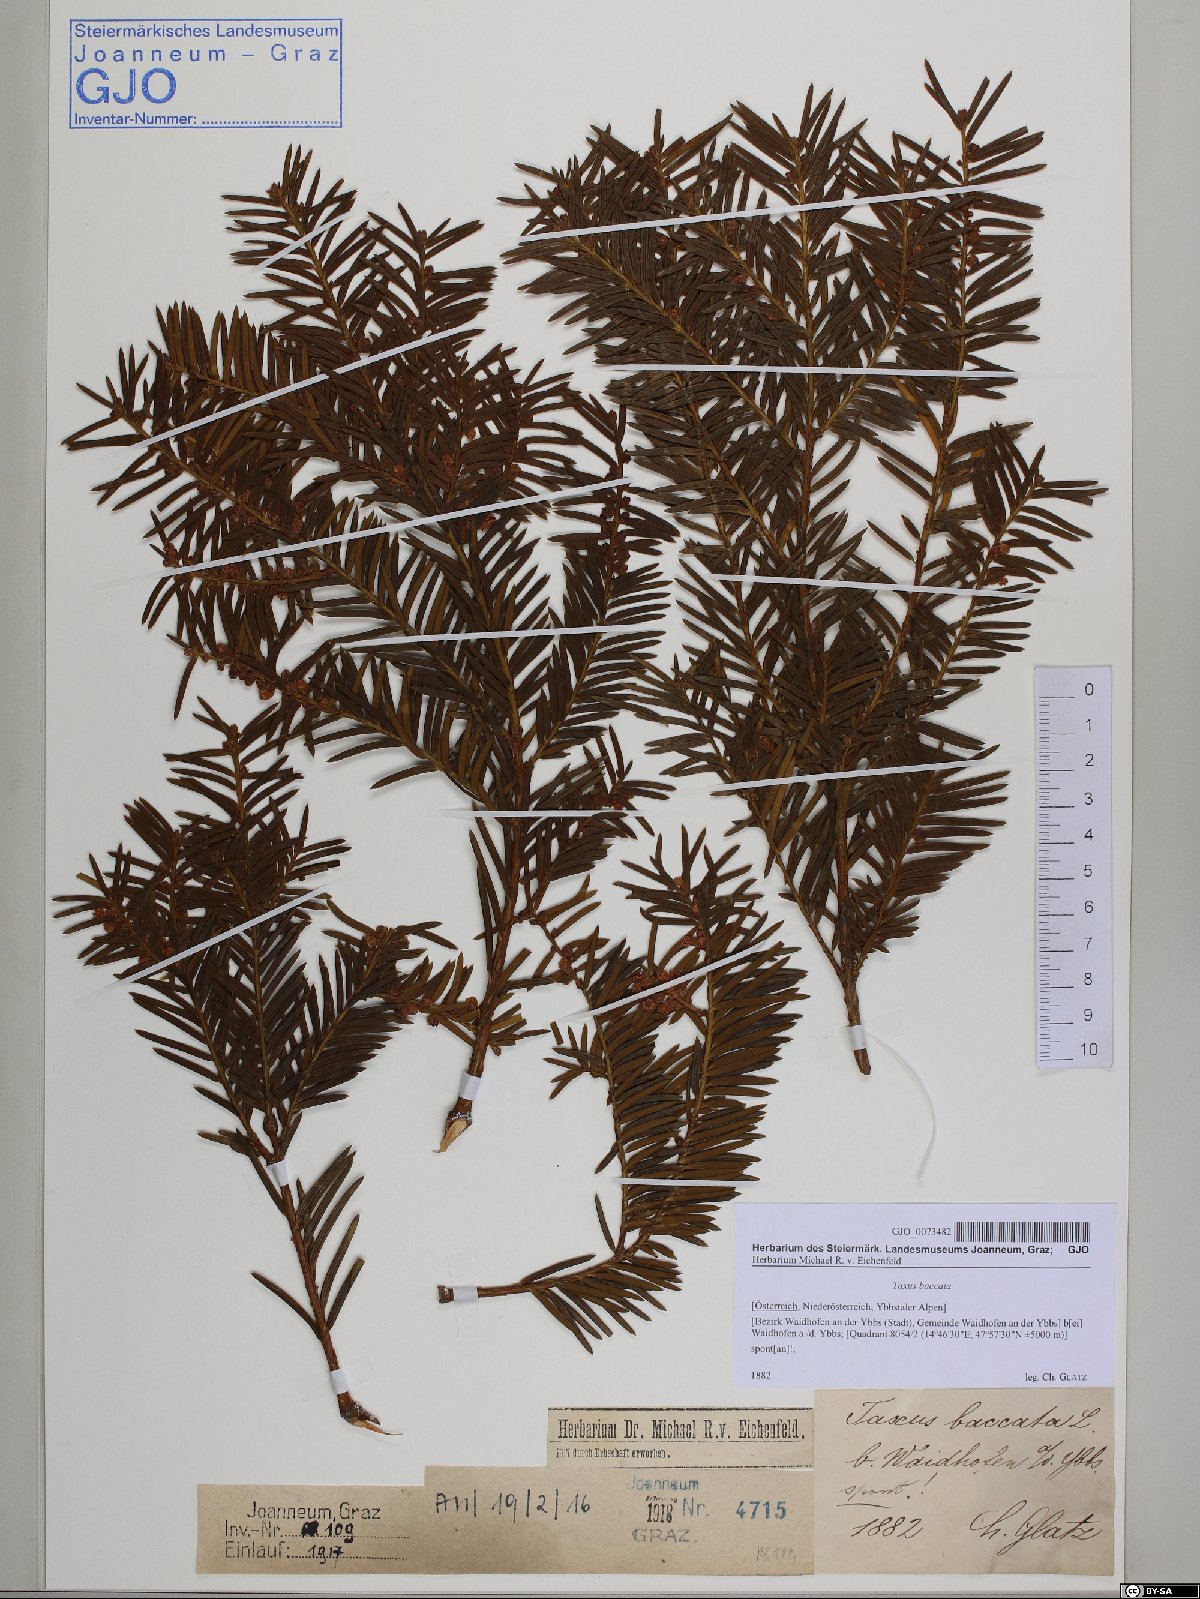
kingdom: Plantae
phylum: Tracheophyta
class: Pinopsida
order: Pinales
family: Taxaceae
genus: Taxus
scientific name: Taxus baccata
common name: Yew
